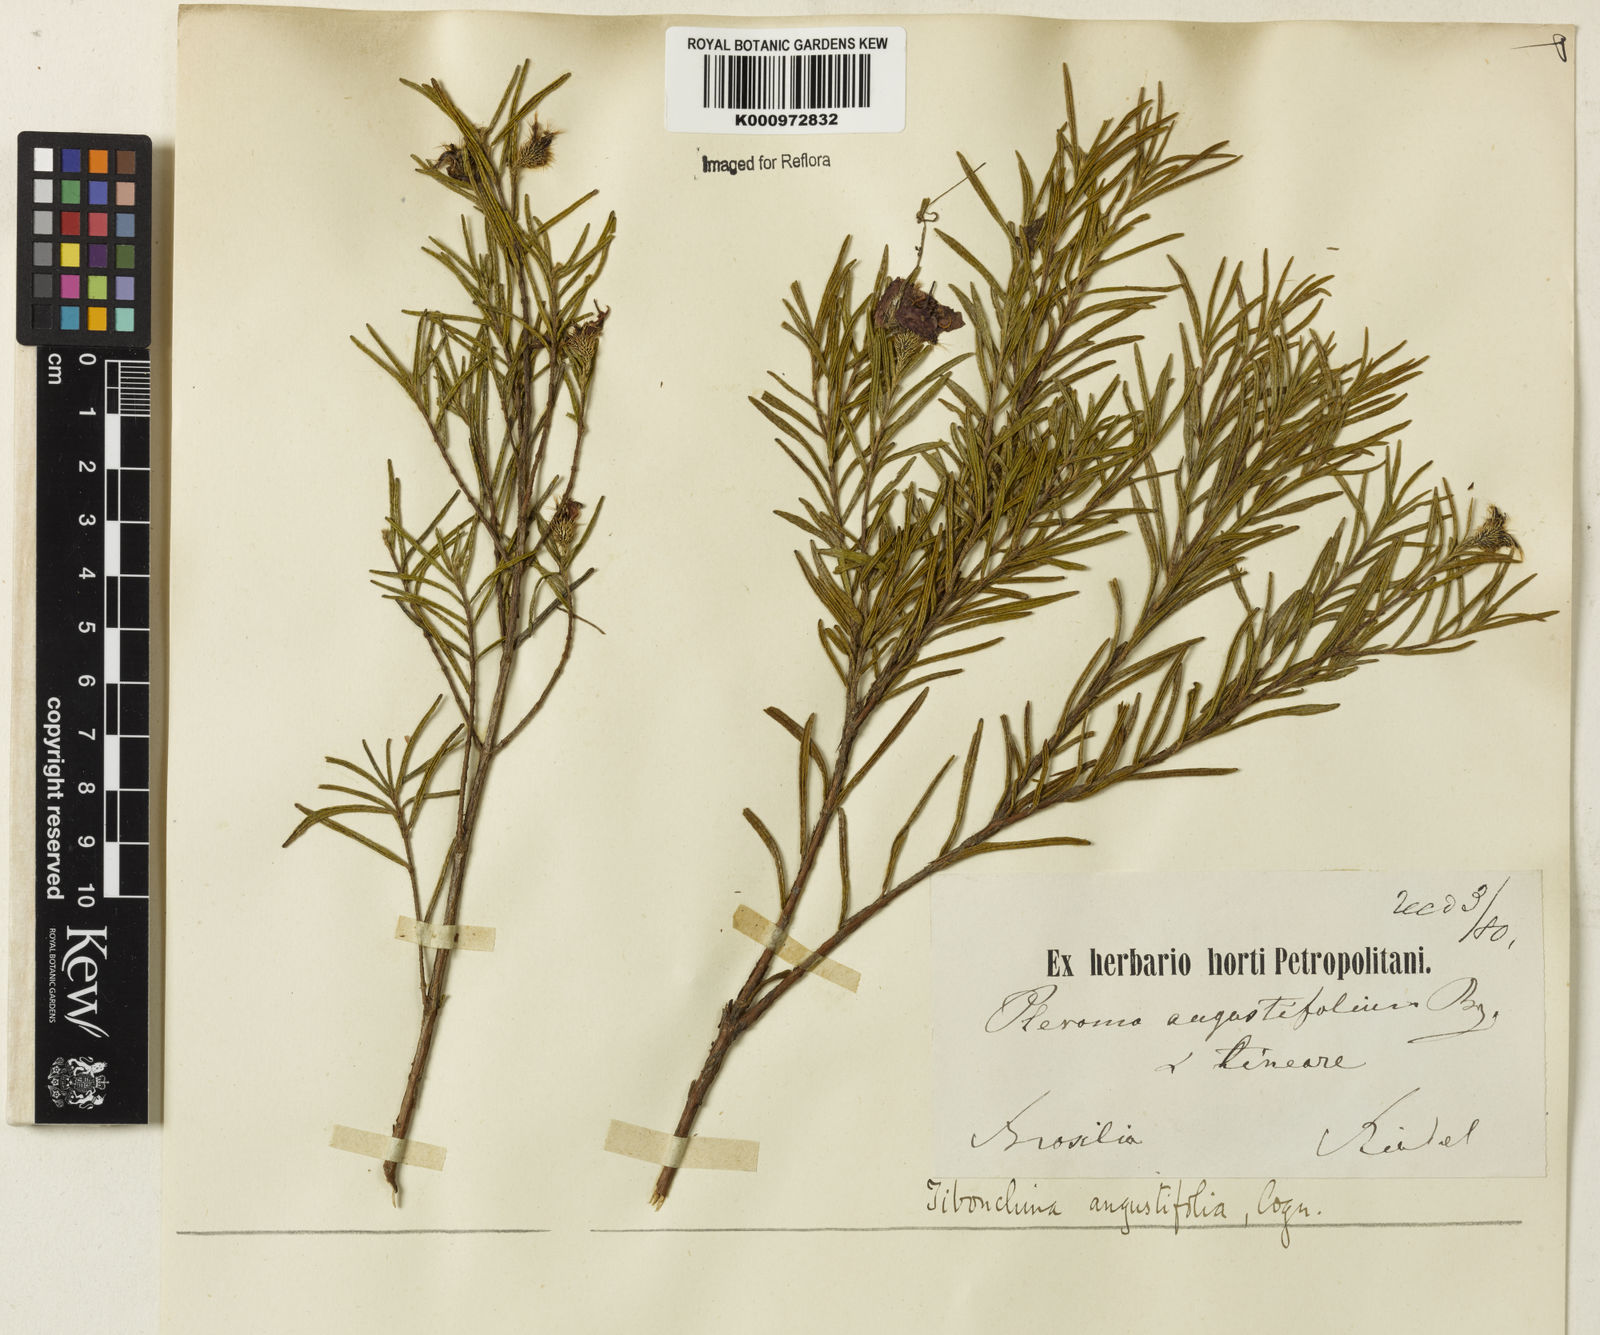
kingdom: Plantae
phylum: Tracheophyta
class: Magnoliopsida
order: Myrtales
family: Melastomataceae
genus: Pleroma
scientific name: Pleroma angustifolium
